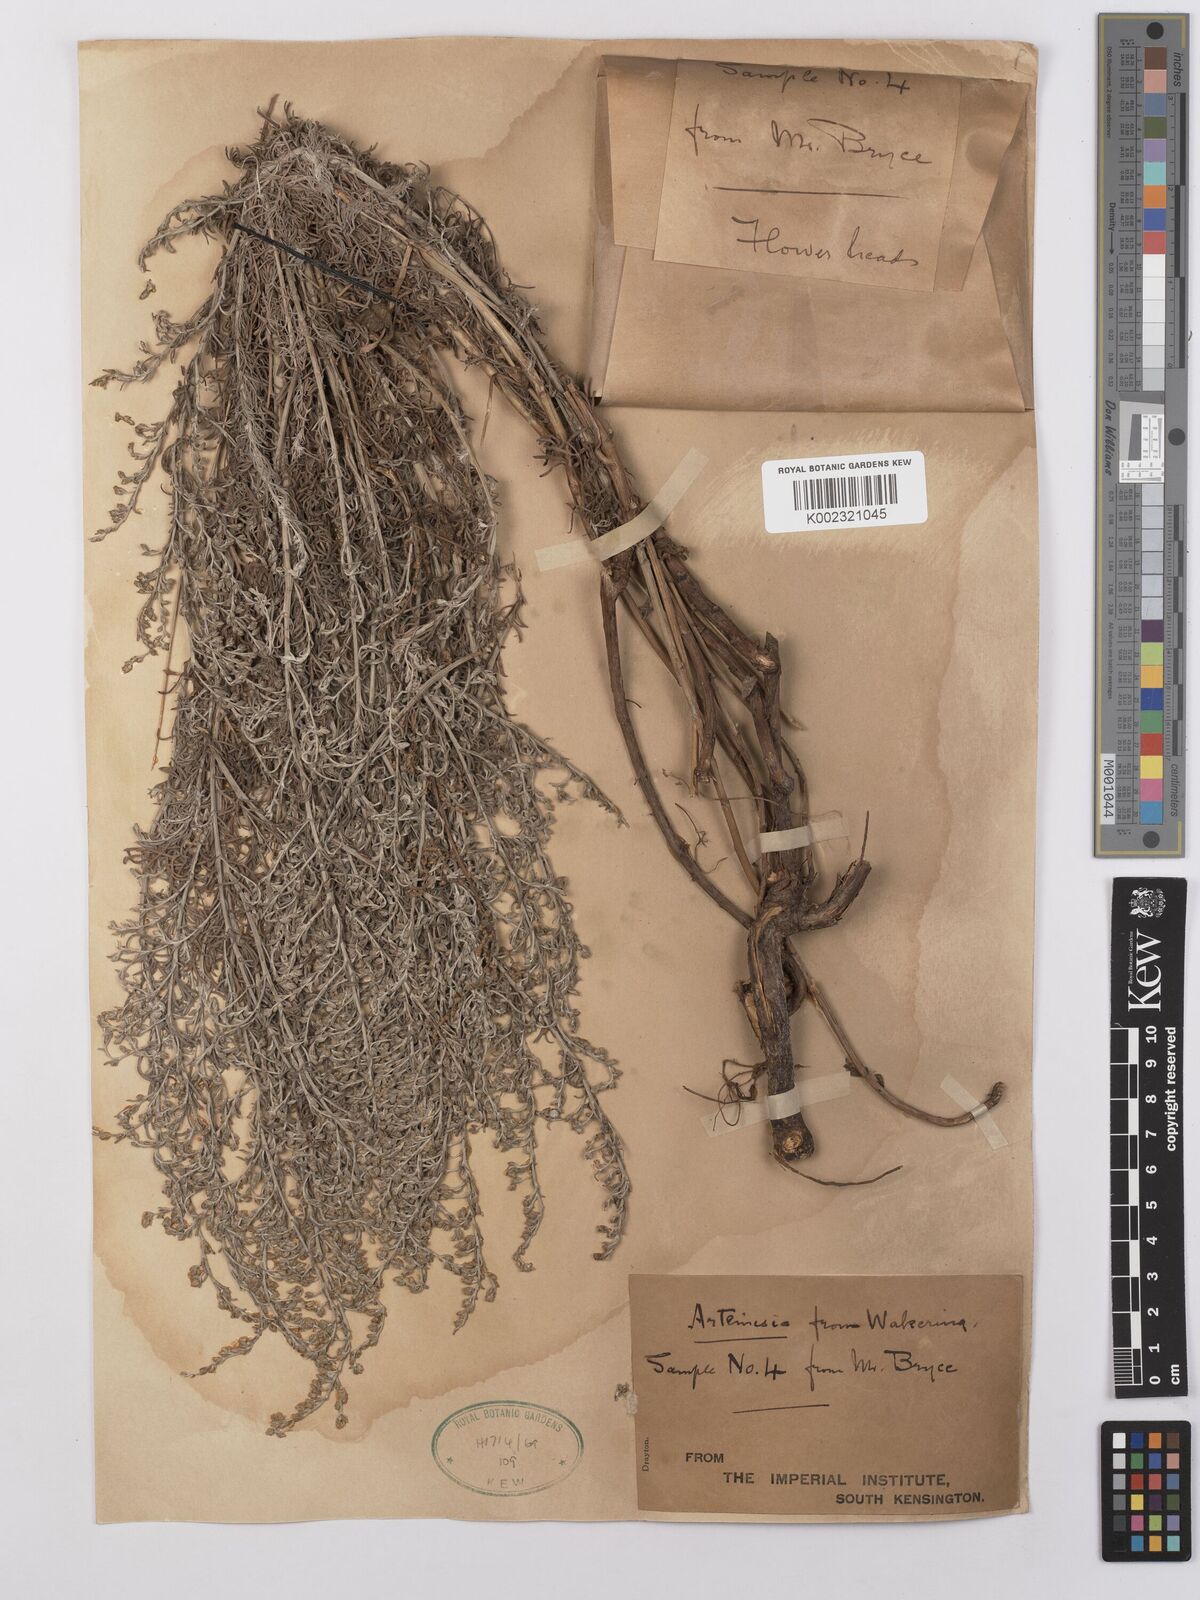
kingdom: Plantae
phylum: Tracheophyta
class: Magnoliopsida
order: Asterales
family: Asteraceae
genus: Artemisia
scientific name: Artemisia maritima
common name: Wormseed
